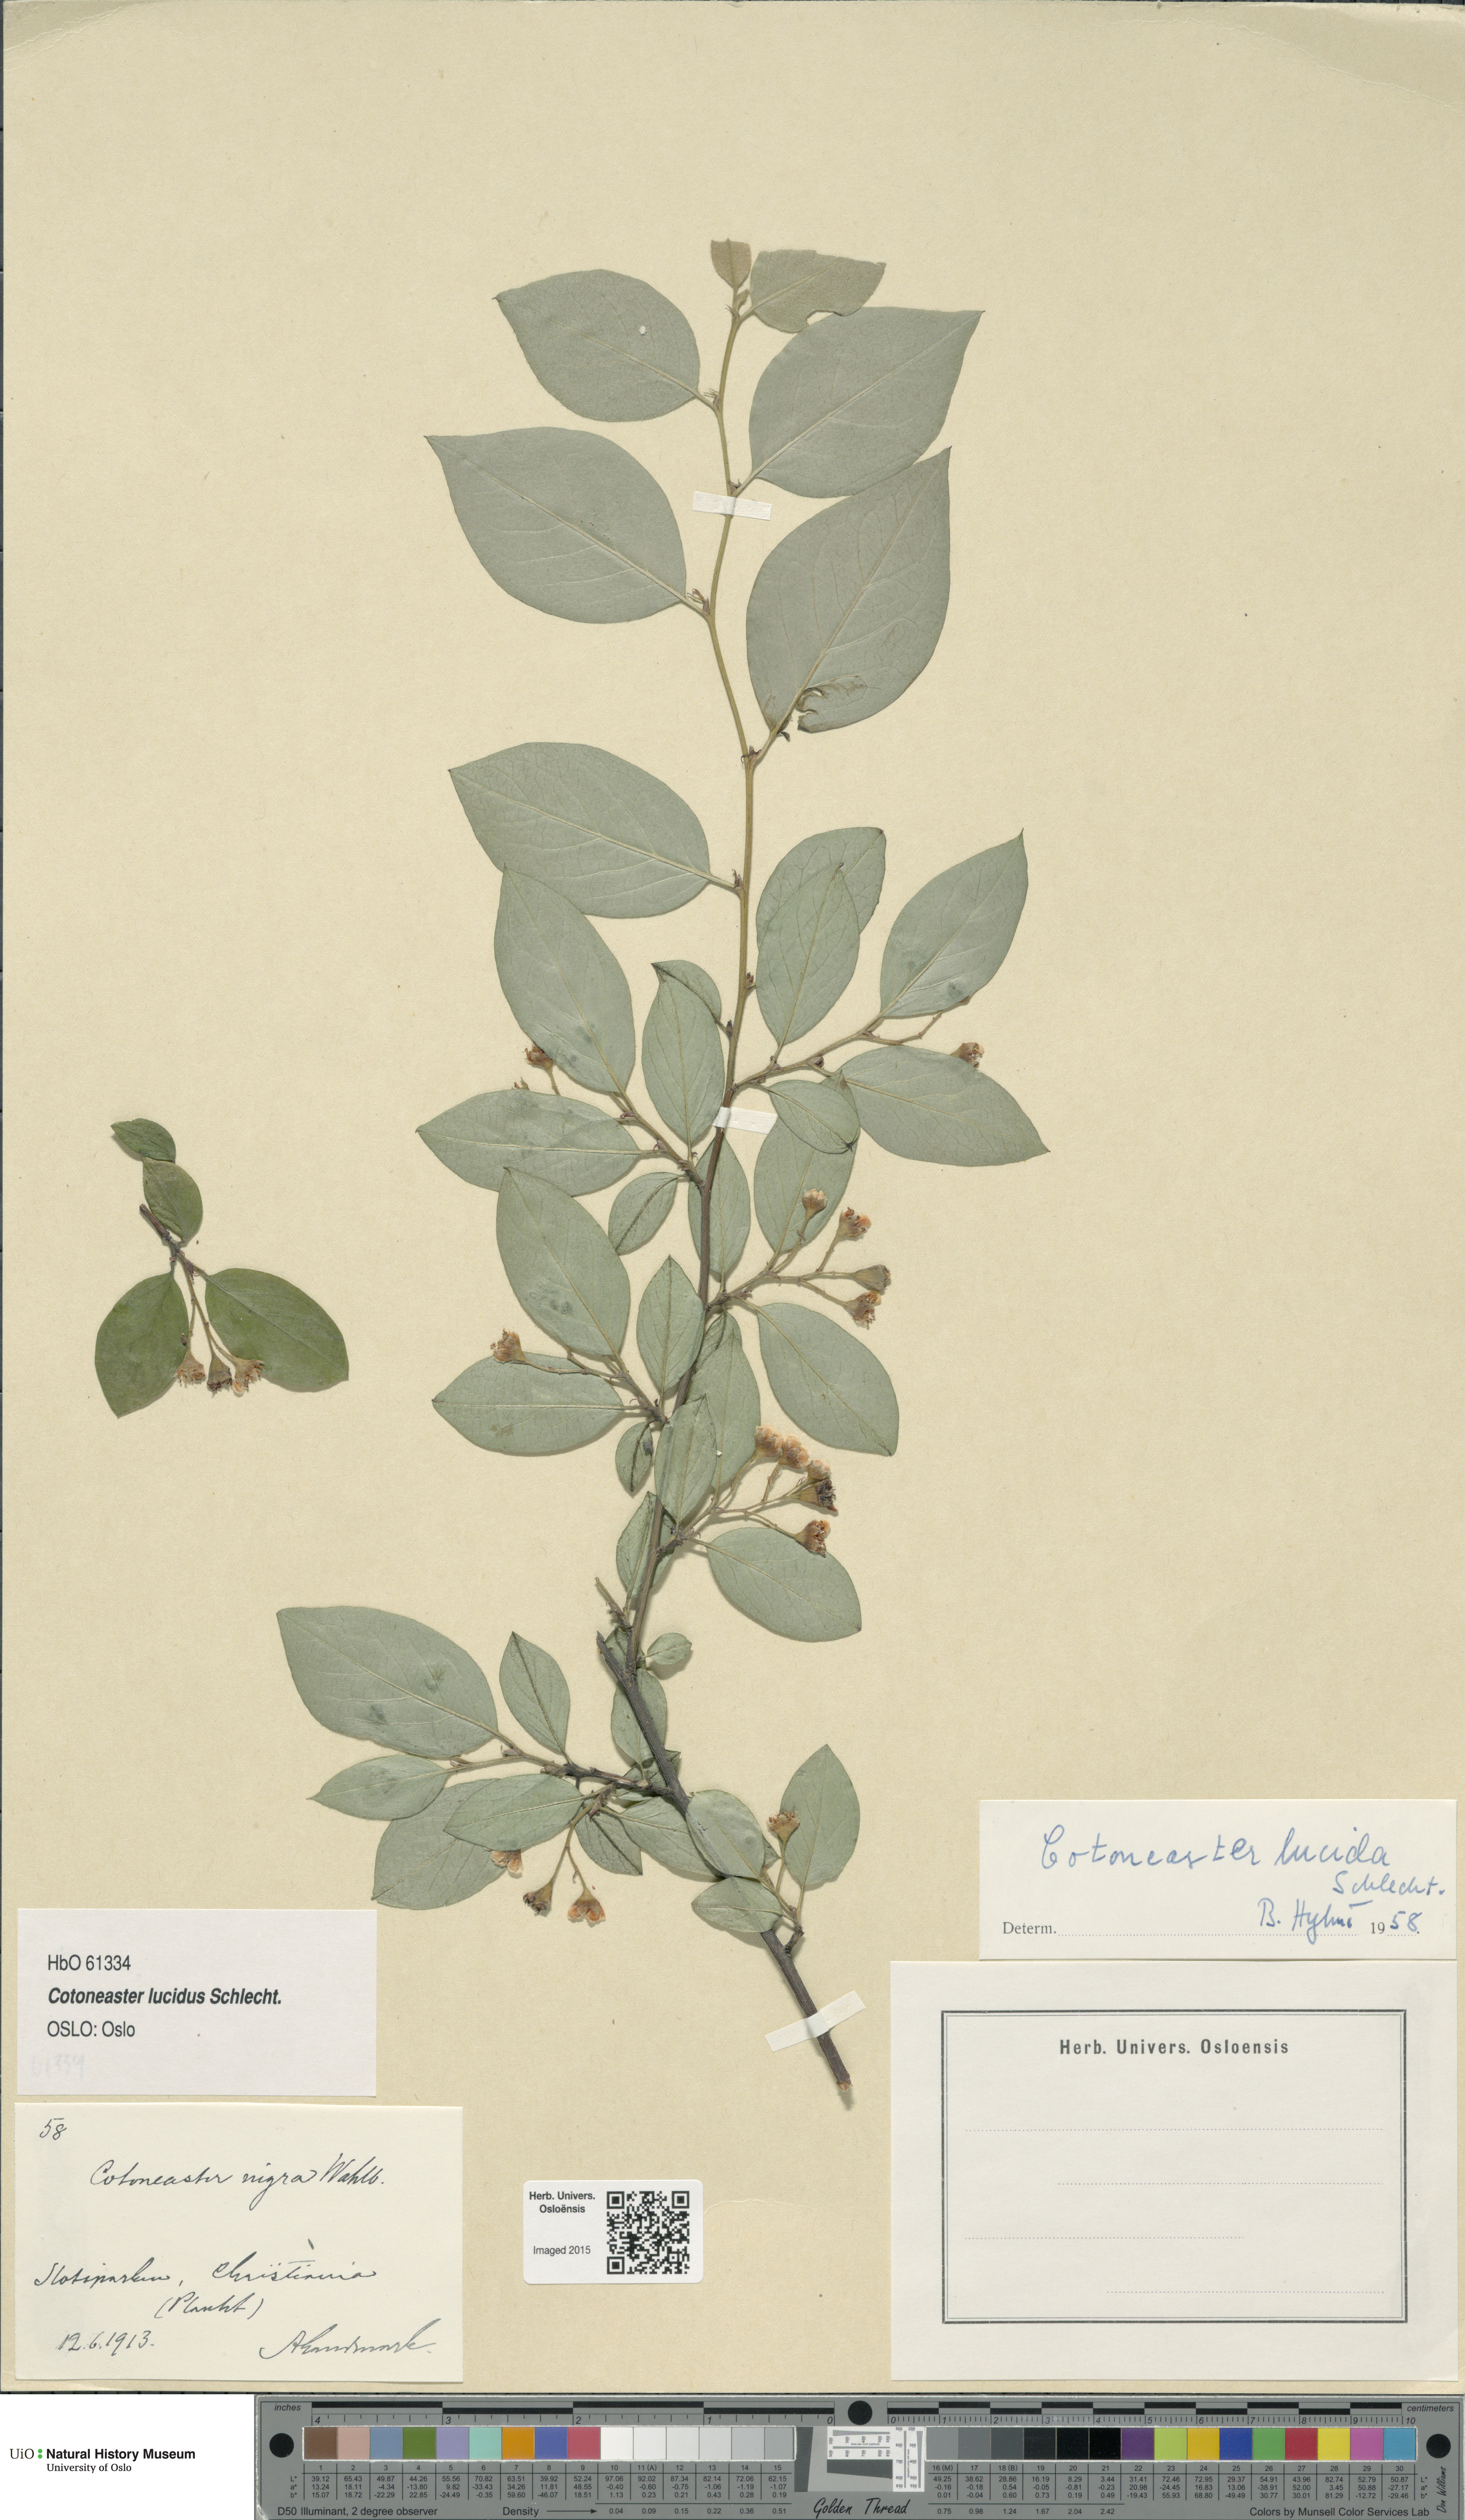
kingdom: Plantae
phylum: Tracheophyta
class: Magnoliopsida
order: Rosales
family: Rosaceae
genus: Cotoneaster
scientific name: Cotoneaster acutifolius
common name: Peking cotoneaster
